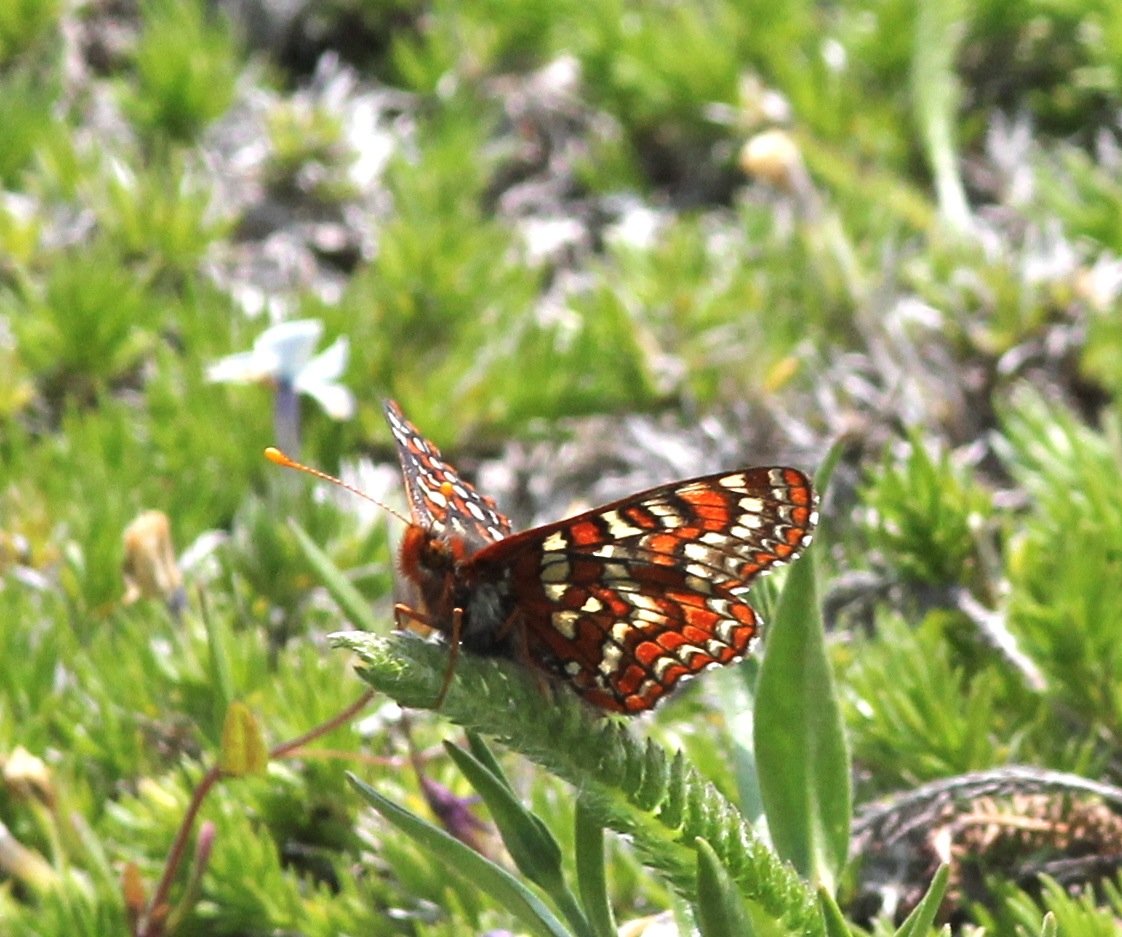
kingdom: Animalia
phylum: Arthropoda
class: Insecta
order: Lepidoptera
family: Nymphalidae
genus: Occidryas
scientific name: Occidryas editha
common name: Edith's Checkerspot
